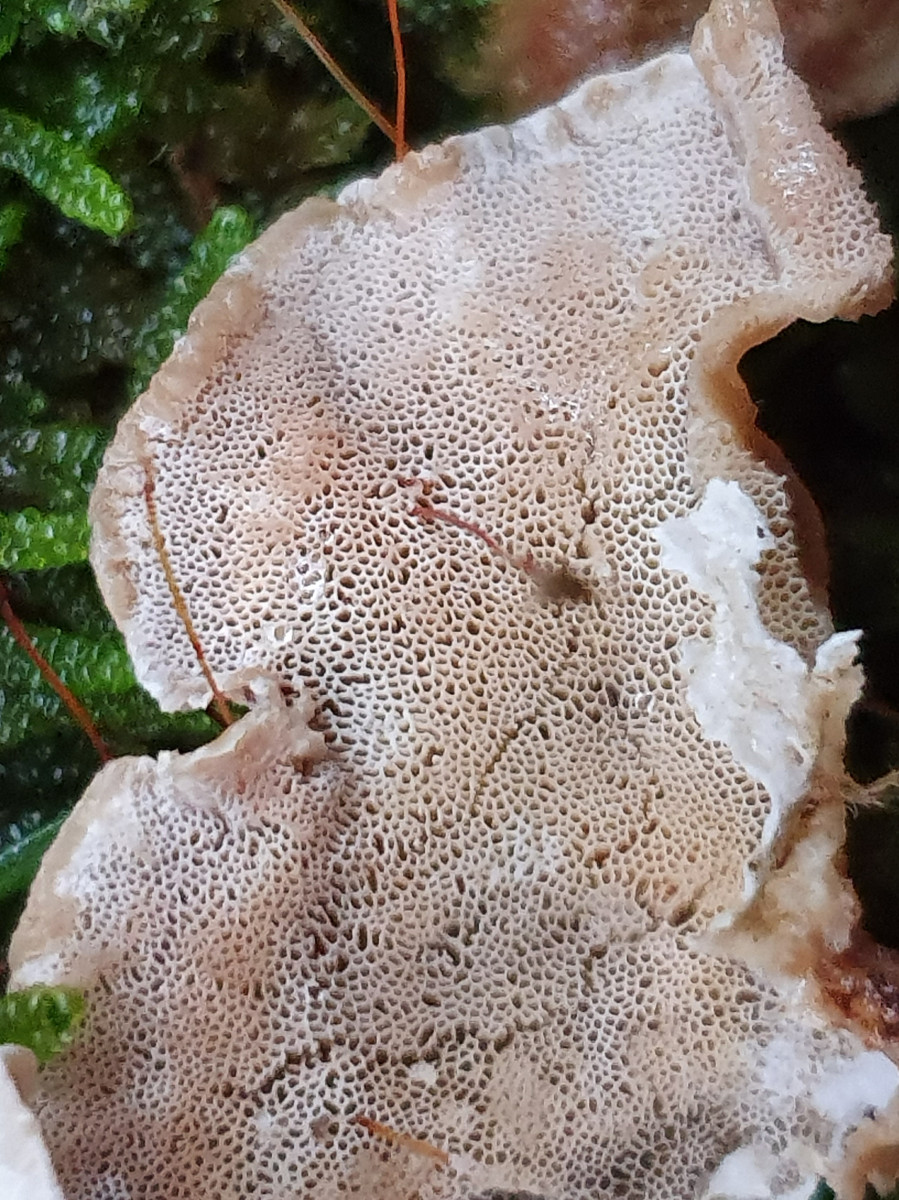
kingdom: Fungi
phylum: Basidiomycota
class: Agaricomycetes
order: Polyporales
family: Incrustoporiaceae
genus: Skeletocutis
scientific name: Skeletocutis carneogrisea
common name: rødgrå krystalporesvamp
